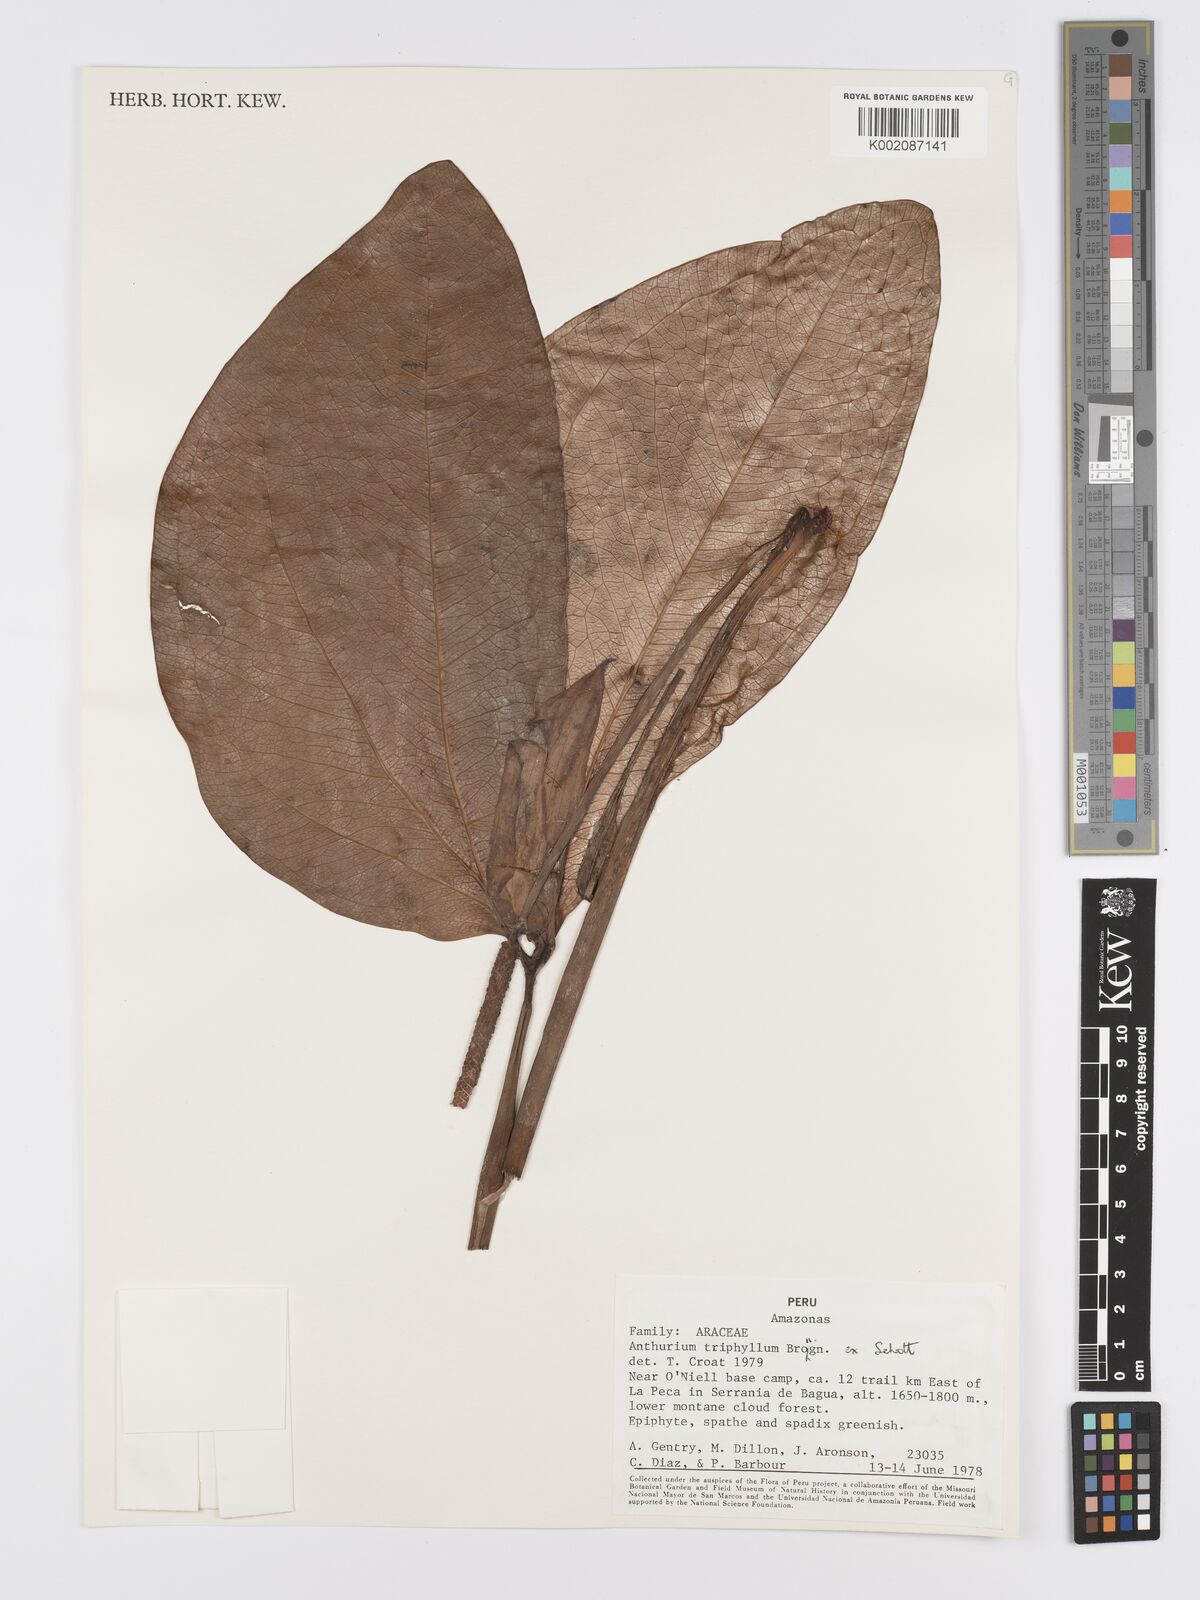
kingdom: Plantae
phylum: Tracheophyta
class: Liliopsida
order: Alismatales
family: Araceae
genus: Anthurium
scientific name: Anthurium triphyllum
